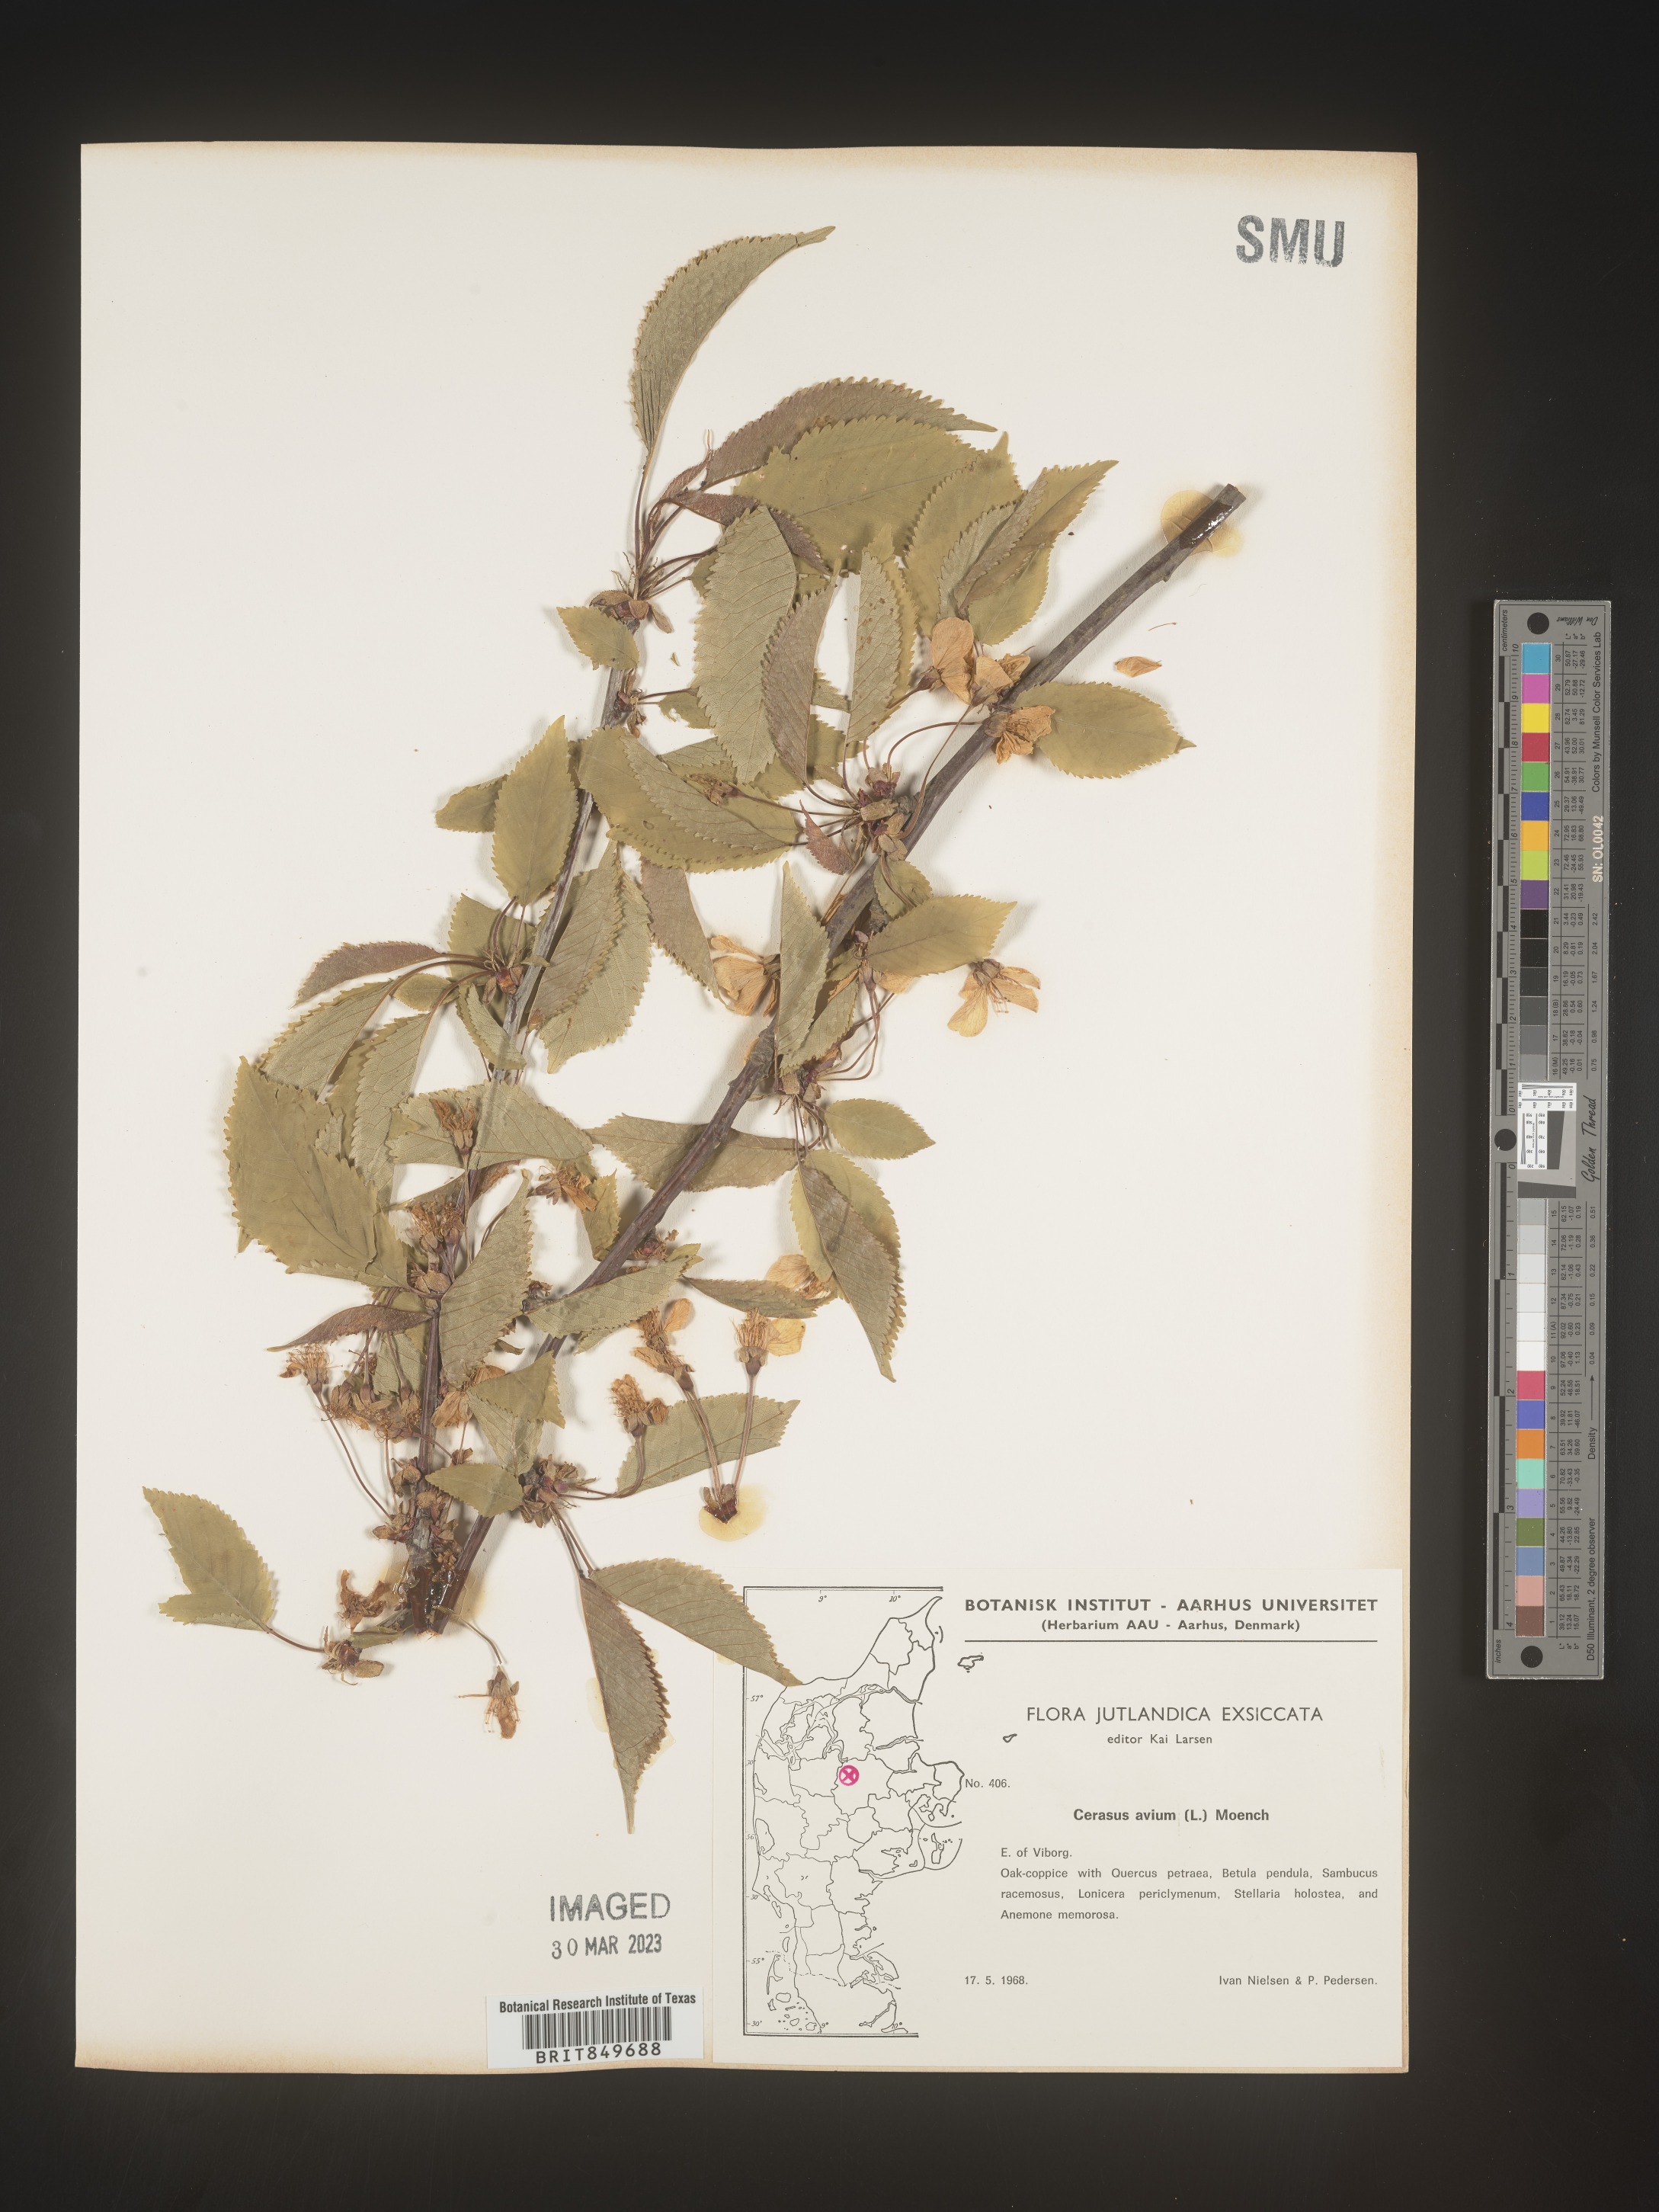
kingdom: Plantae
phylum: Tracheophyta
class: Magnoliopsida
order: Rosales
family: Rosaceae
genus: Prunus
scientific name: Prunus
